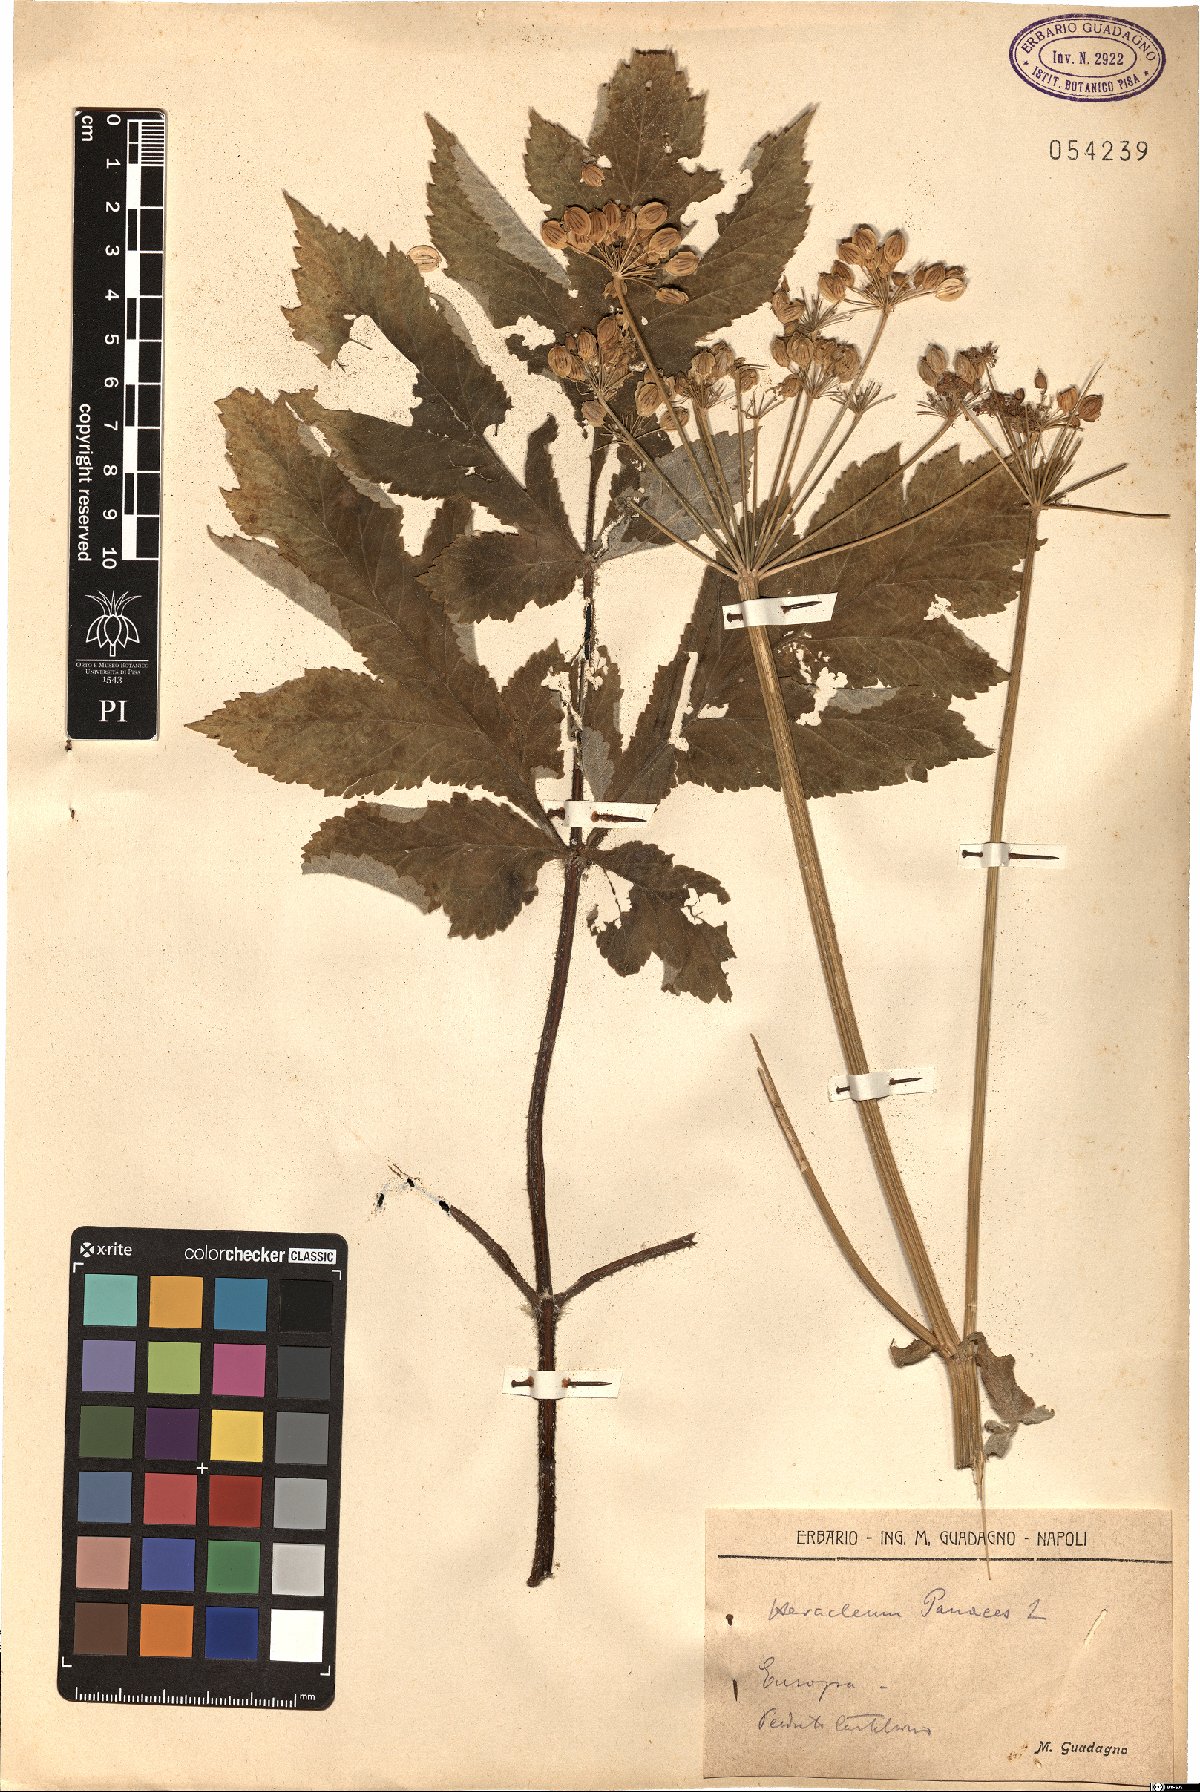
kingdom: Plantae
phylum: Tracheophyta
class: Magnoliopsida
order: Apiales
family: Apiaceae
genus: Heracleum
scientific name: Heracleum sphondylium
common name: Hogweed
